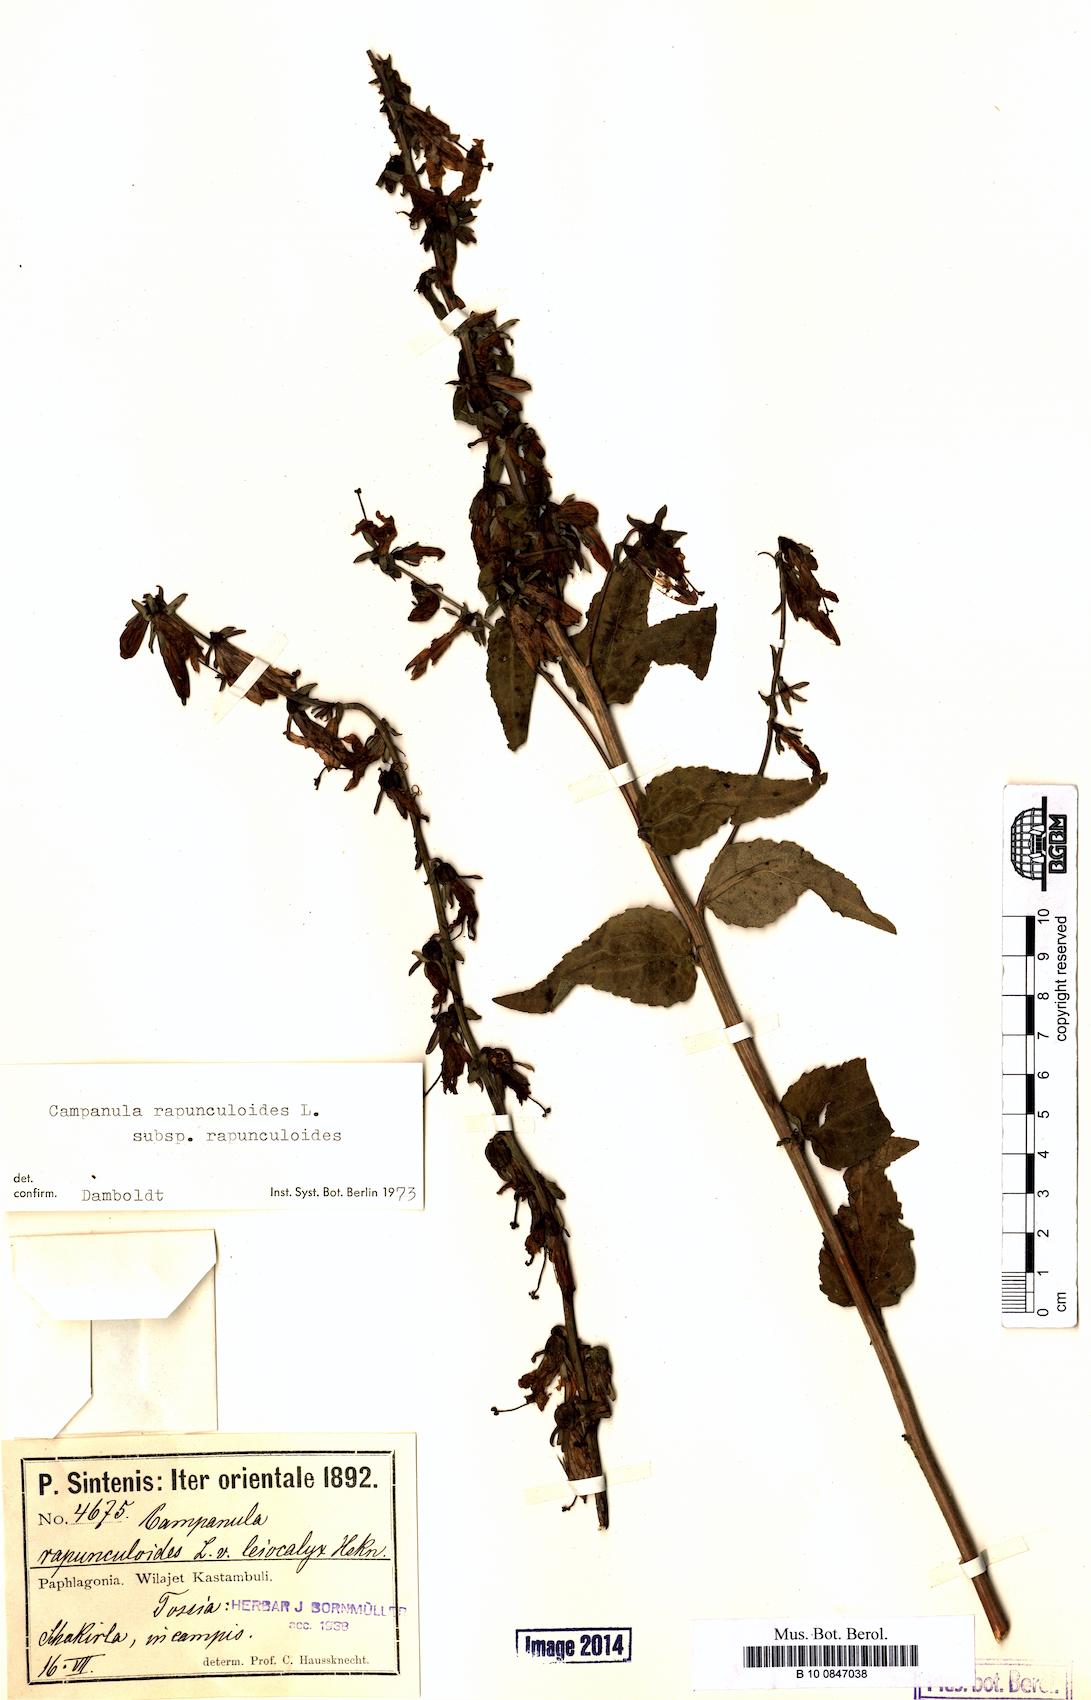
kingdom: Plantae
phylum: Tracheophyta
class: Magnoliopsida
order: Asterales
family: Campanulaceae
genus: Campanula
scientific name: Campanula rapunculoides
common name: Creeping bellflower
